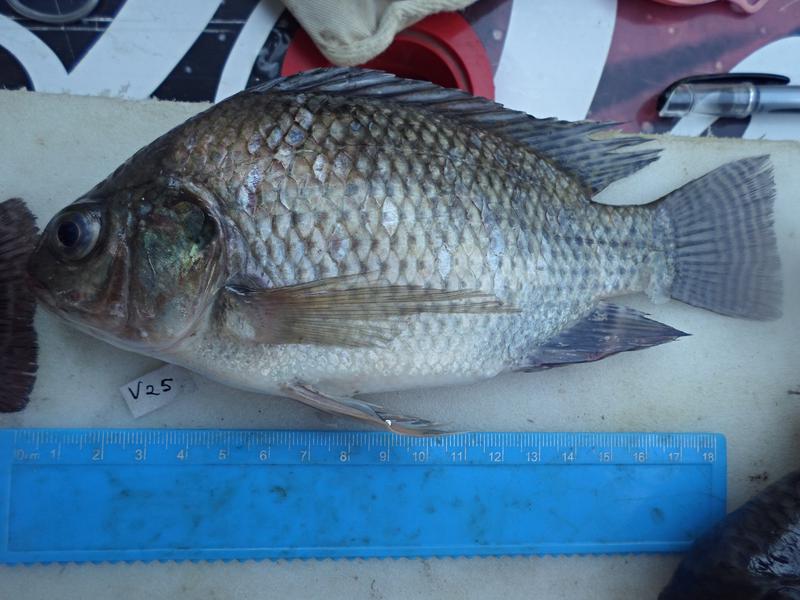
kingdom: Animalia
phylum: Chordata
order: Perciformes
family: Cichlidae
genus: Oreochromis
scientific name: Oreochromis niloticus
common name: Nile tilapia
